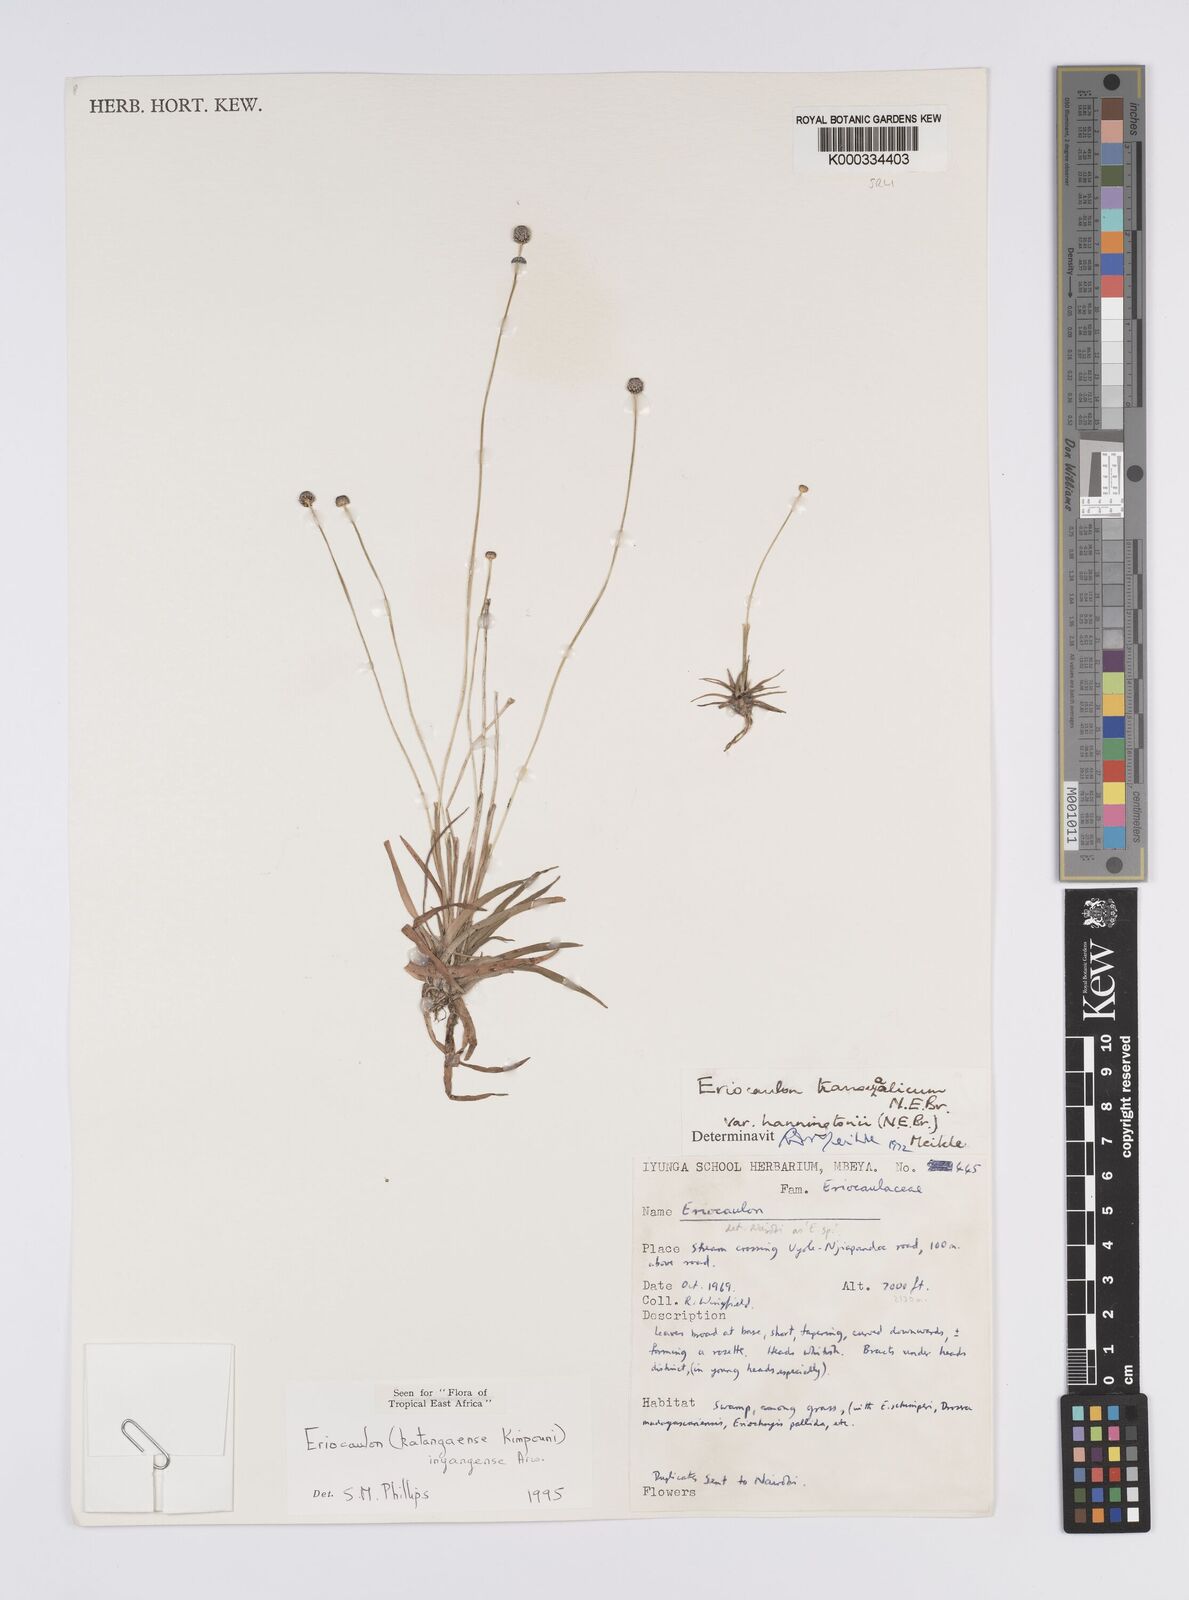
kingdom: Plantae
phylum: Tracheophyta
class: Liliopsida
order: Poales
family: Eriocaulaceae
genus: Eriocaulon
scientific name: Eriocaulon inyangense
